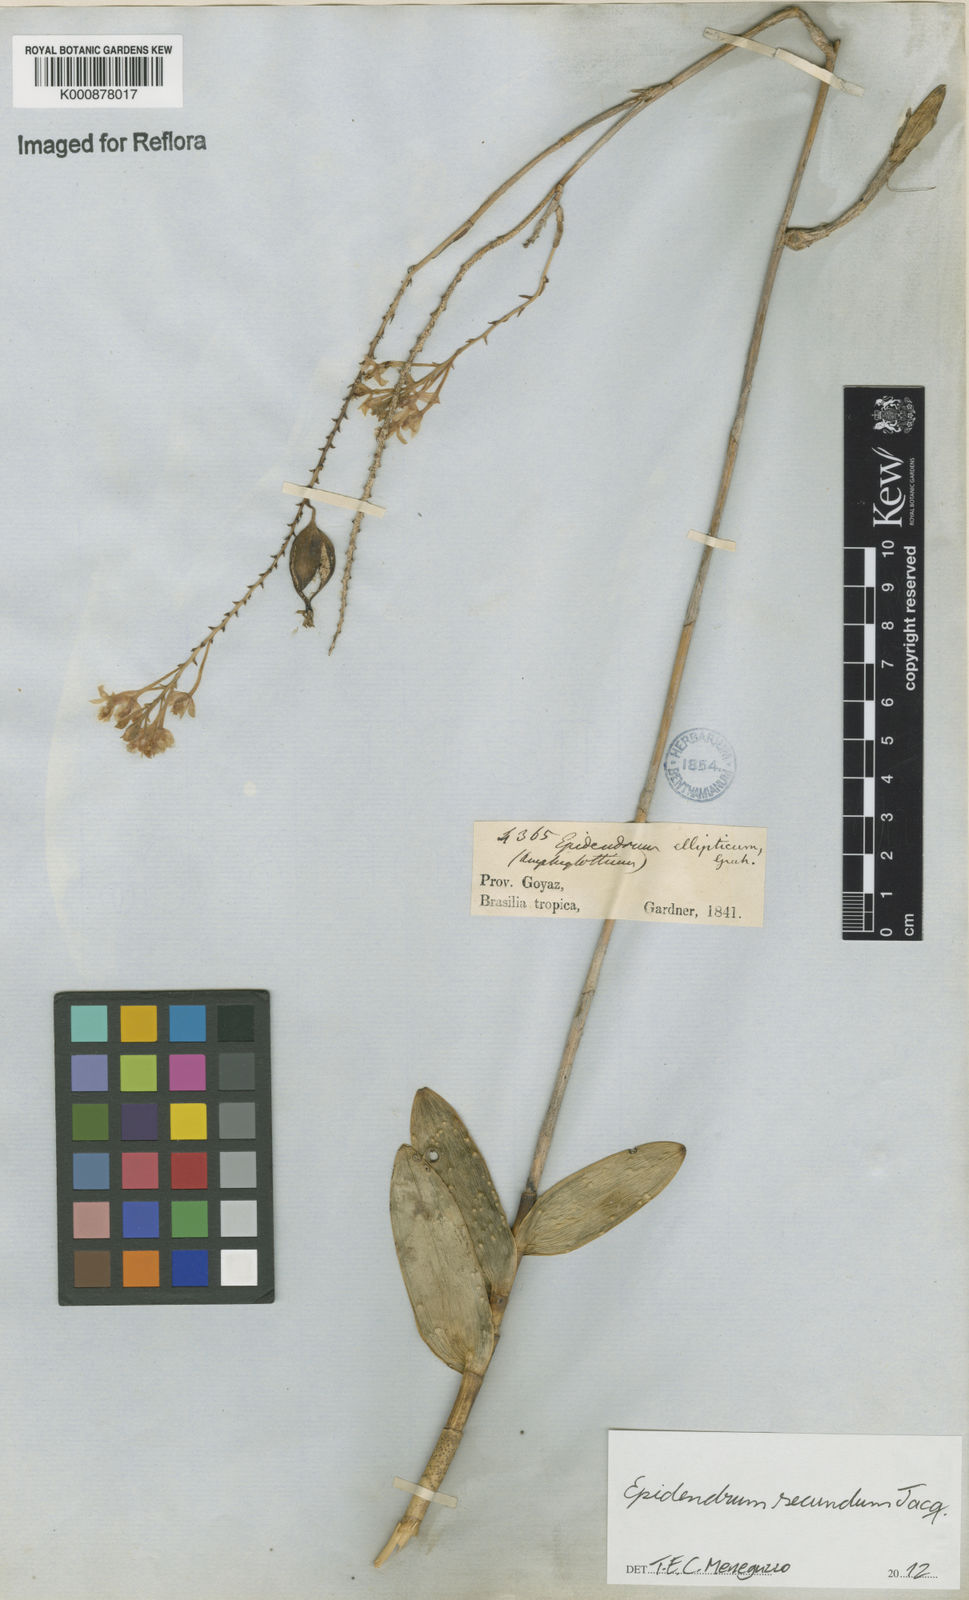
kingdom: Plantae
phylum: Tracheophyta
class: Liliopsida
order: Asparagales
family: Orchidaceae
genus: Epidendrum
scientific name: Epidendrum secundum
